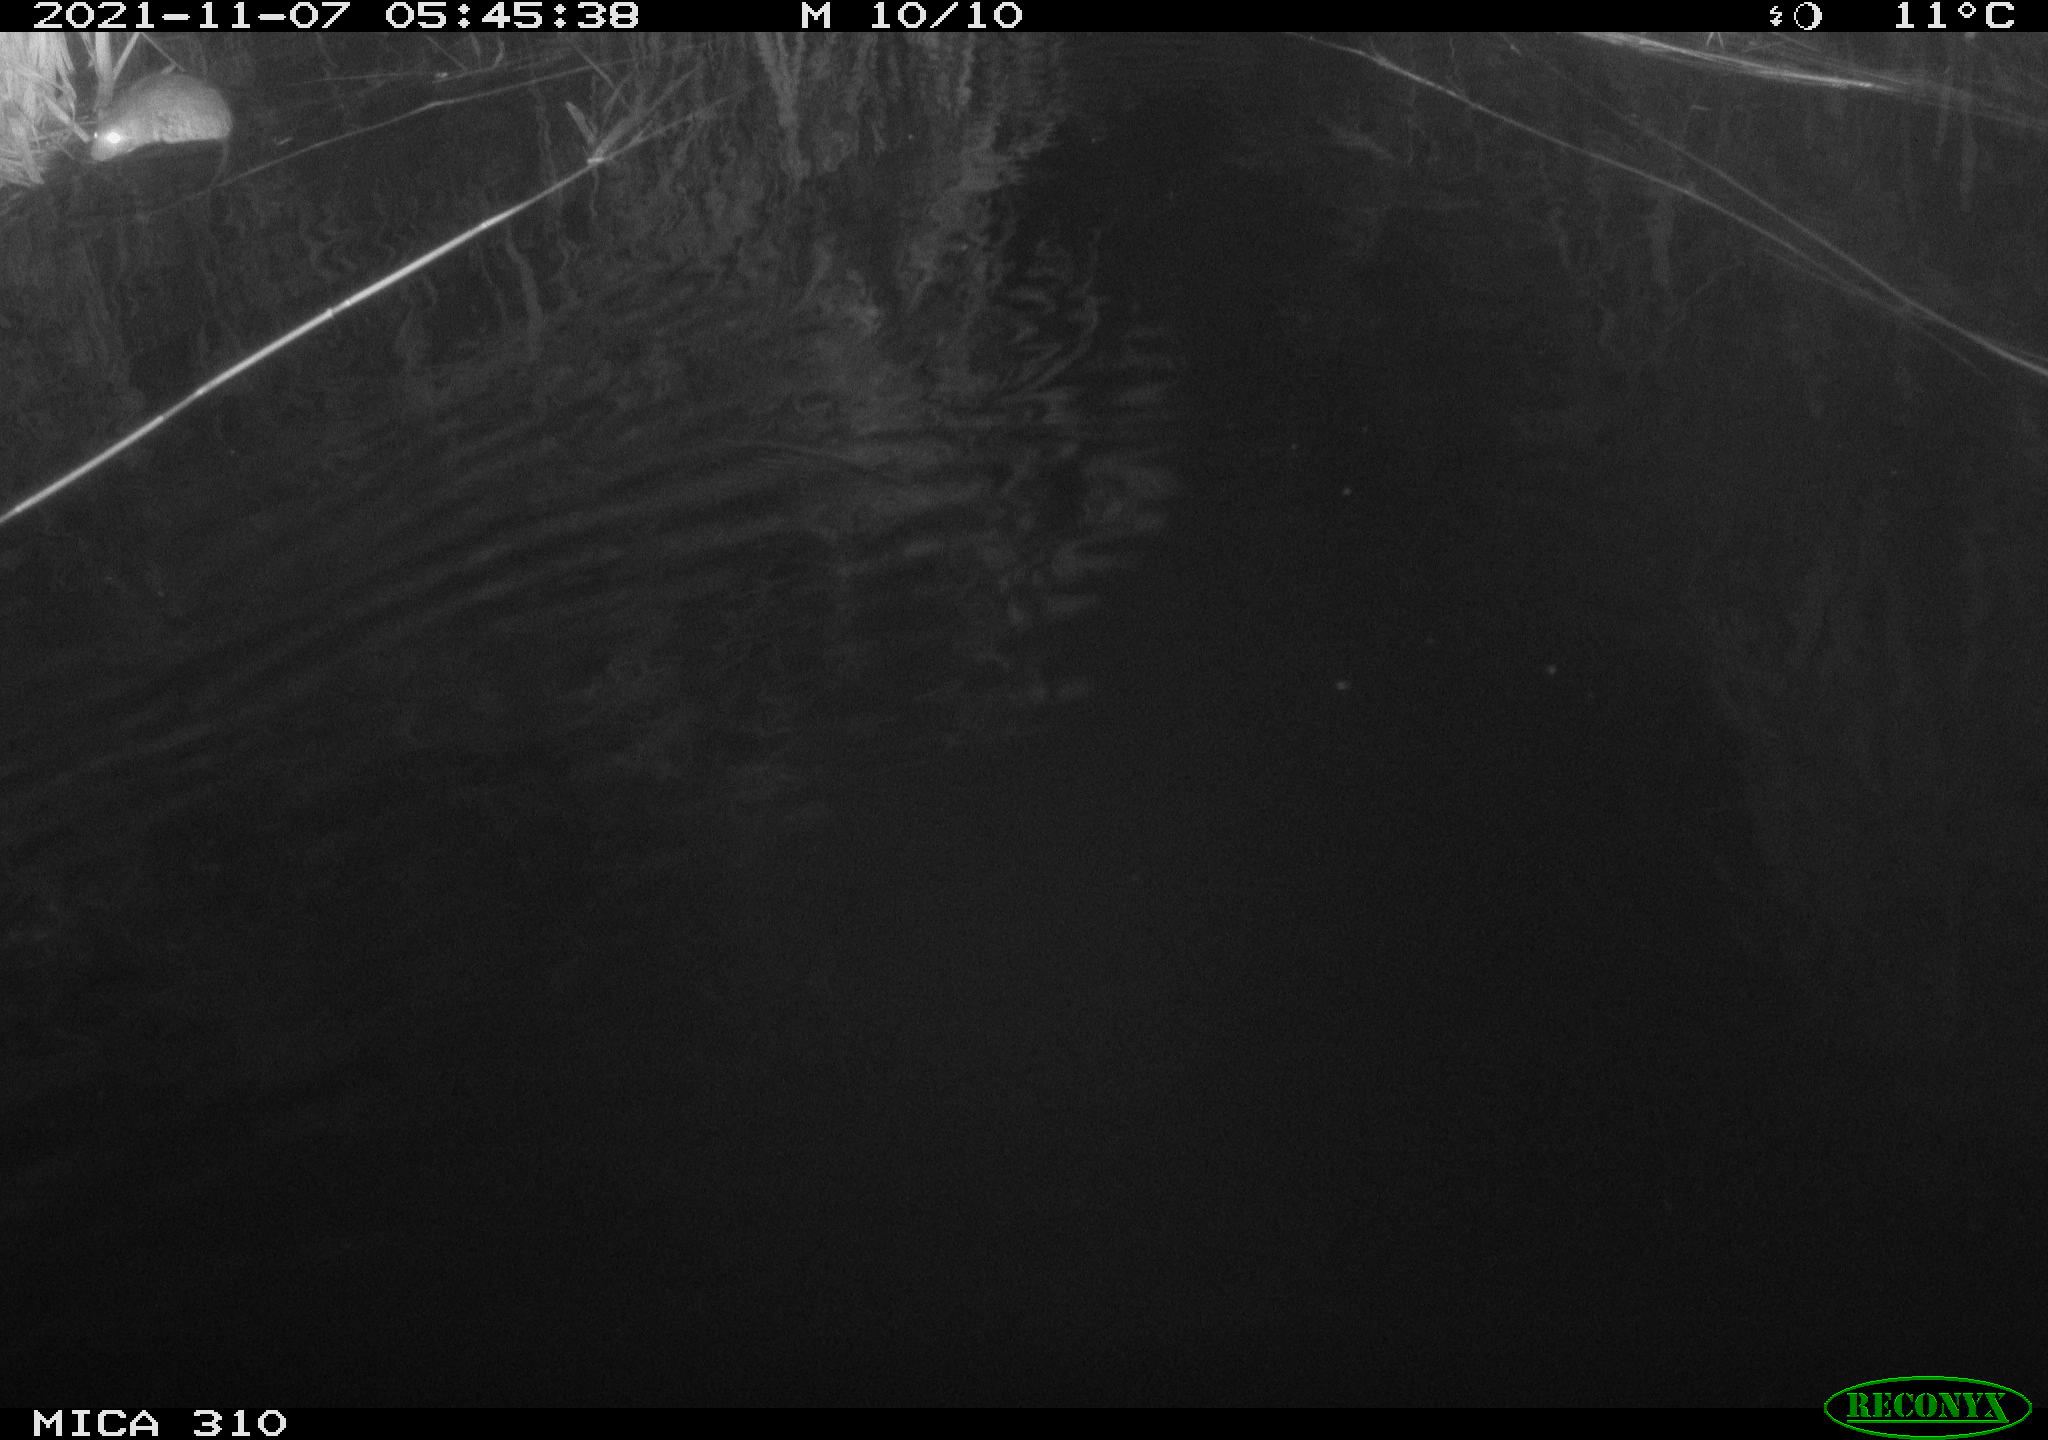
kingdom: Animalia
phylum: Chordata
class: Mammalia
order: Rodentia
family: Muridae
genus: Rattus
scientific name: Rattus norvegicus
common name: Brown rat
